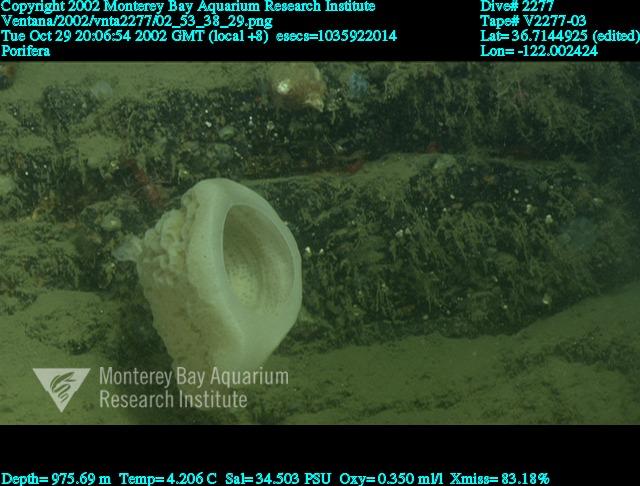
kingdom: Animalia
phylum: Porifera
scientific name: Porifera
